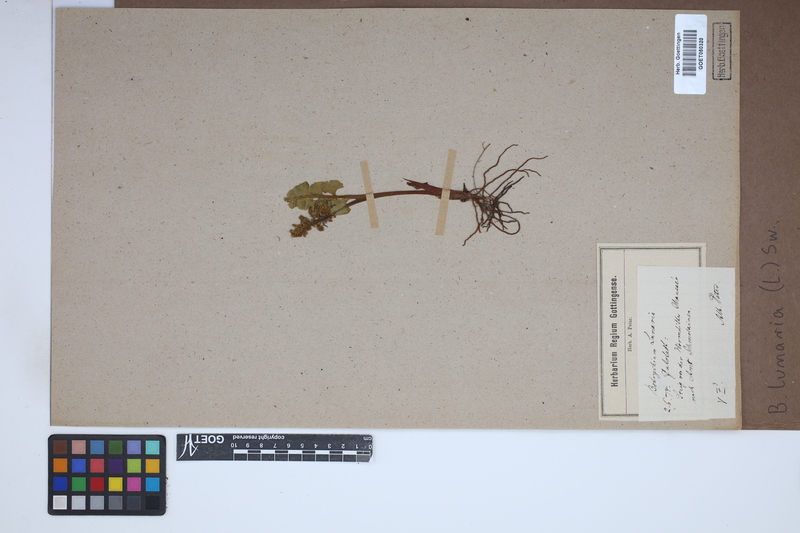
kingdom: Plantae
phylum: Tracheophyta
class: Polypodiopsida
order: Ophioglossales
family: Ophioglossaceae
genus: Botrychium
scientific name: Botrychium lunaria
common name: Moonwort
